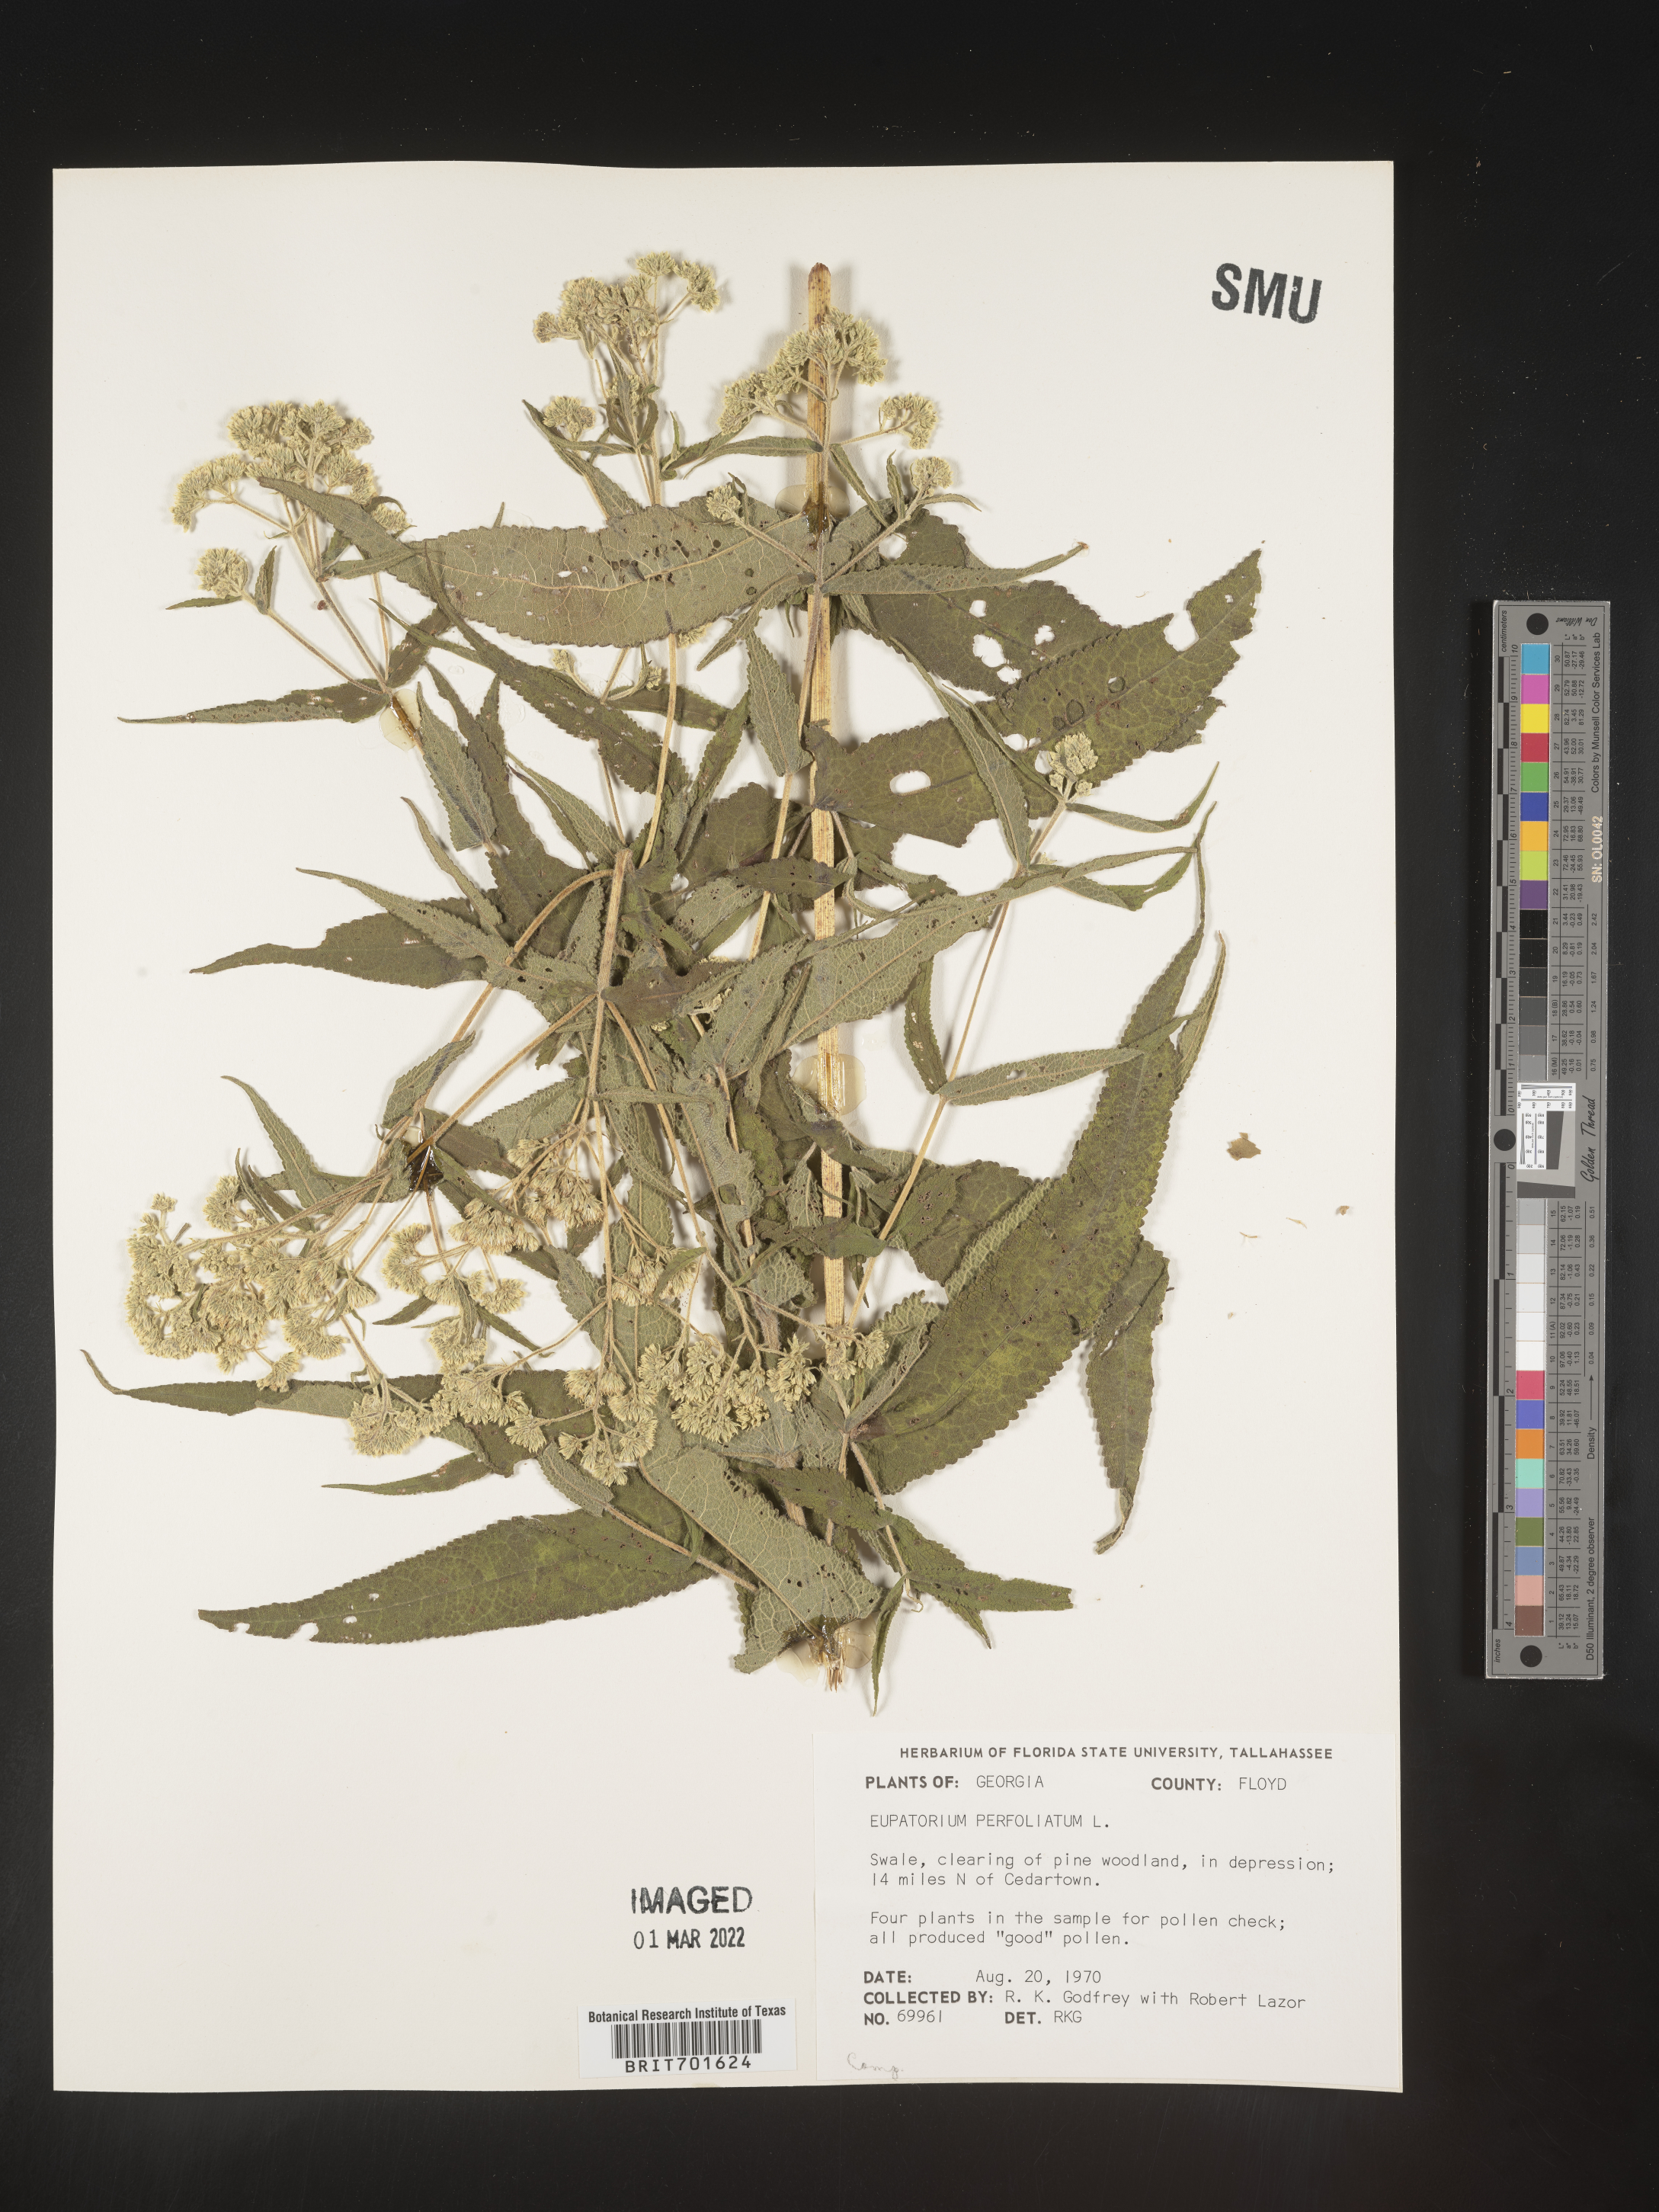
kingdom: Plantae
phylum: Tracheophyta
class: Magnoliopsida
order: Asterales
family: Asteraceae
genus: Eupatorium
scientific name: Eupatorium perfoliatum
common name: Boneset
